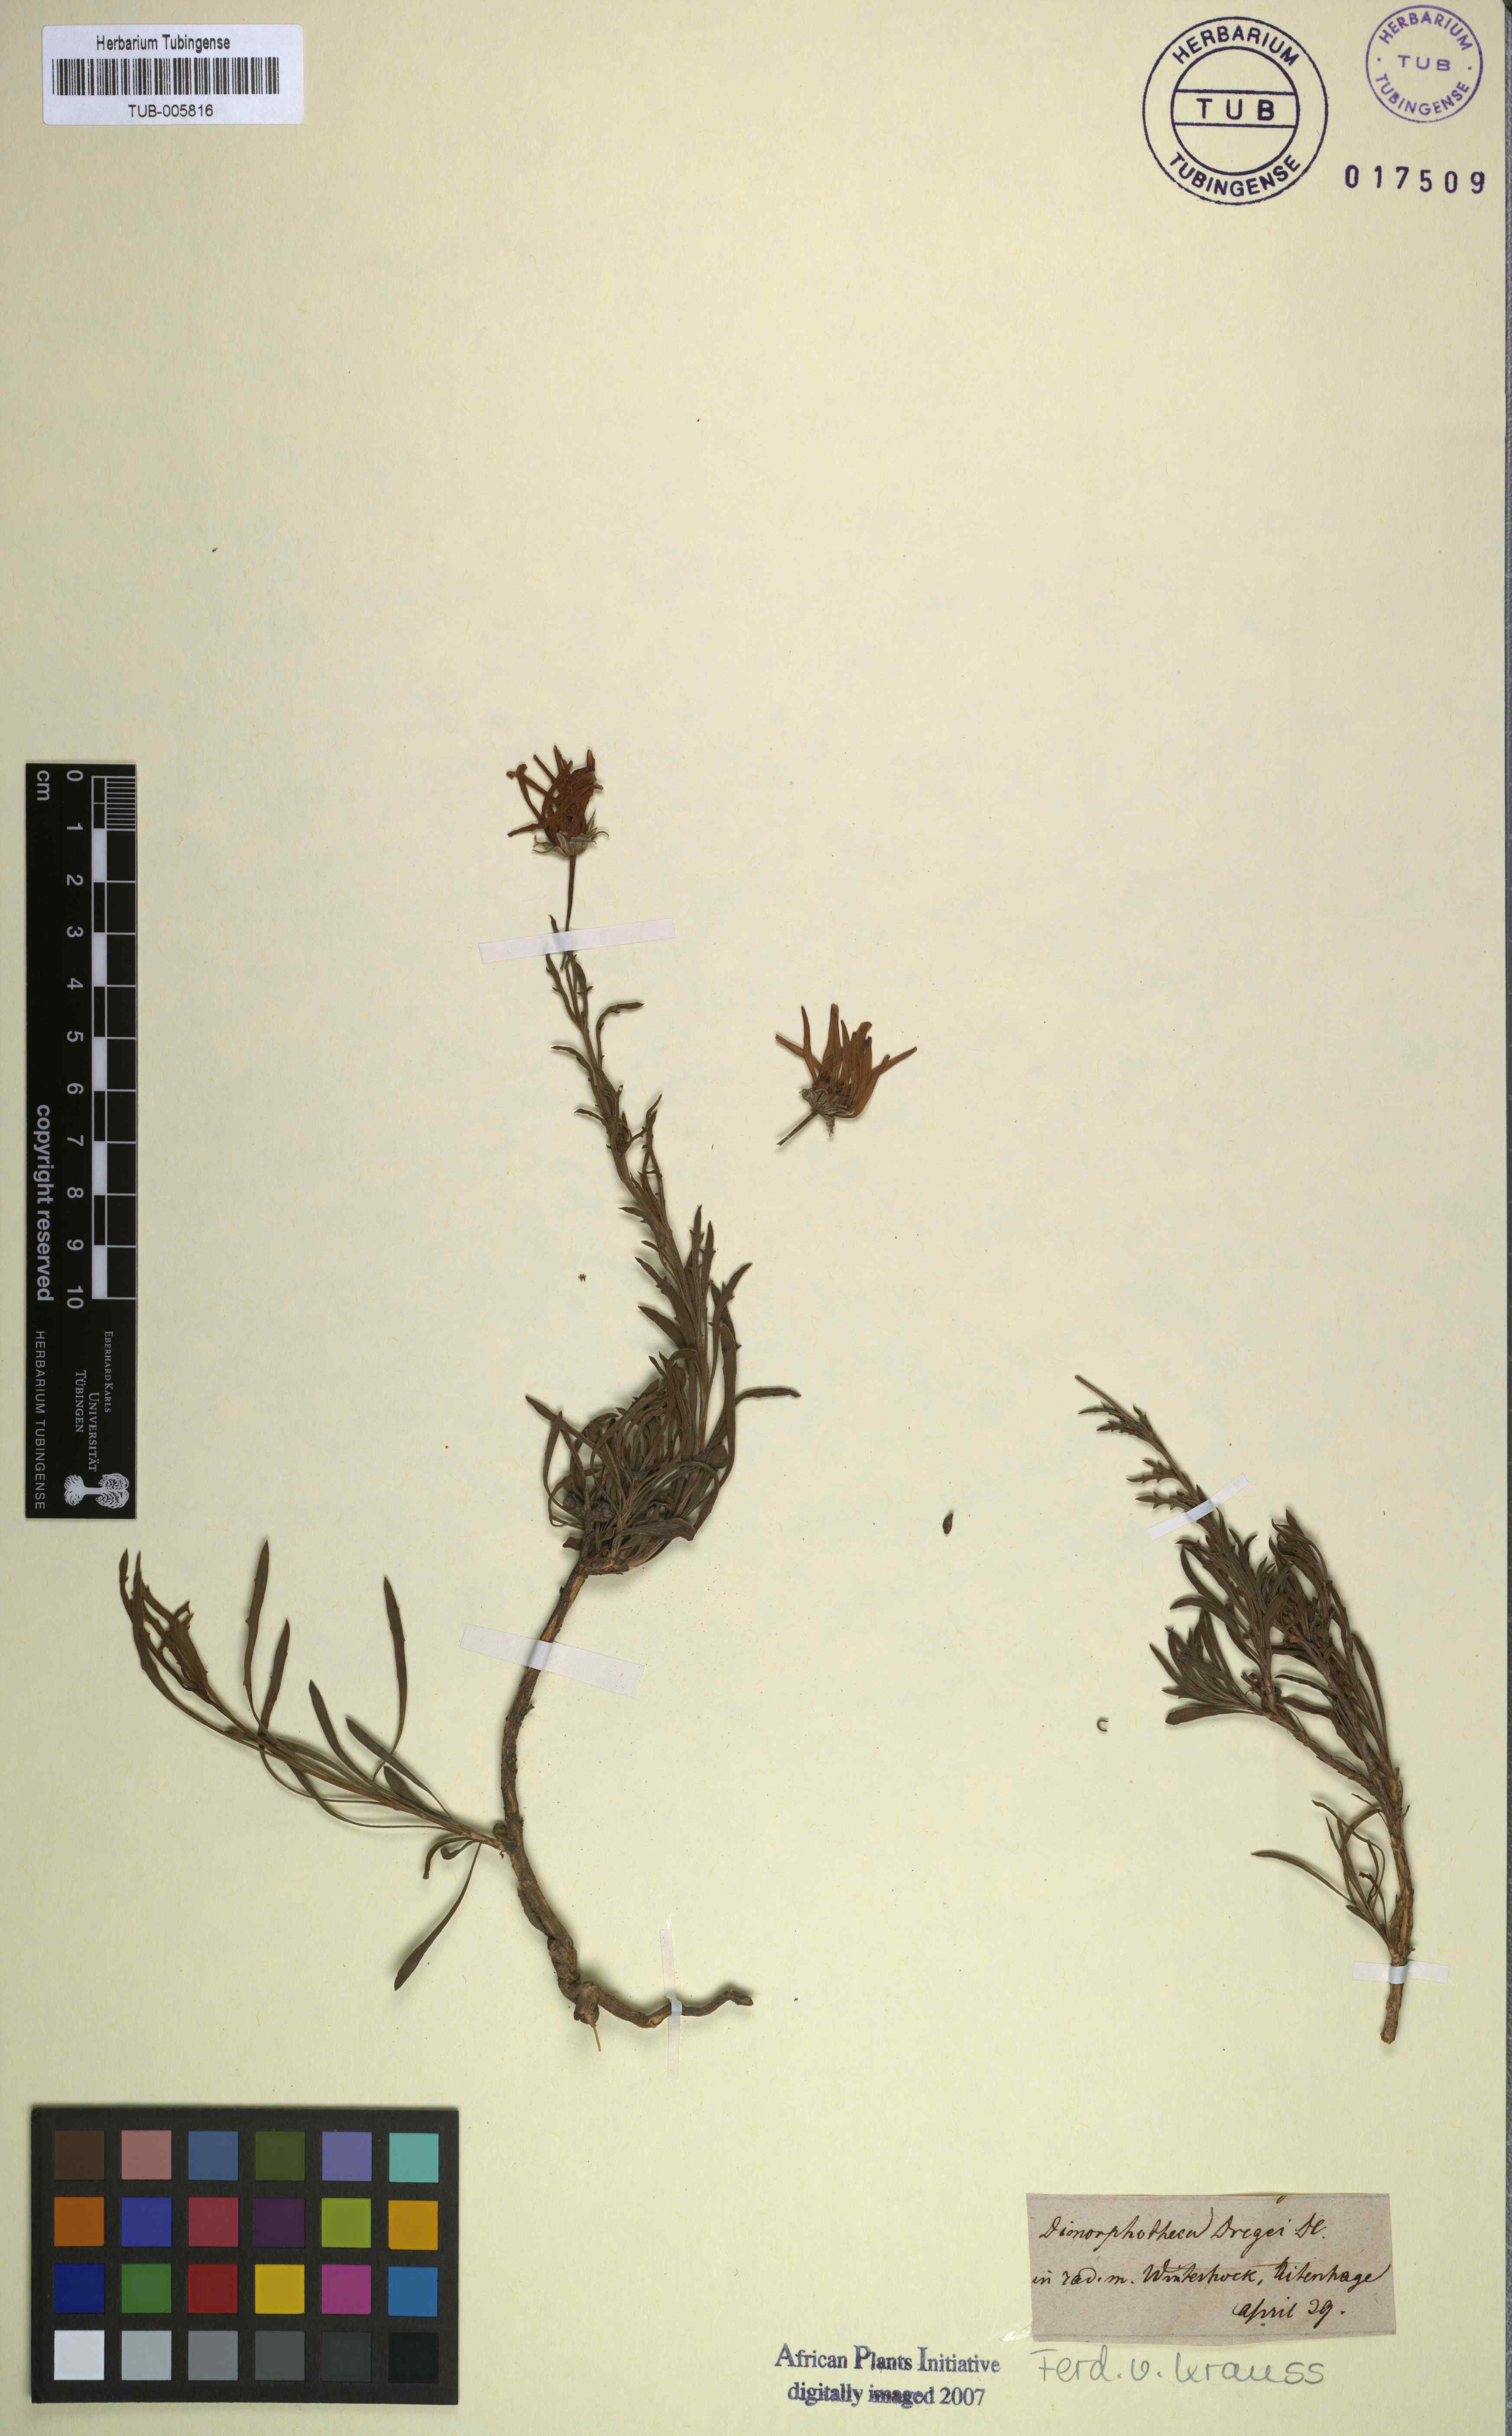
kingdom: Plantae
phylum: Tracheophyta
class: Magnoliopsida
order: Asterales
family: Asteraceae
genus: Dimorphotheca
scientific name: Dimorphotheca dregei
